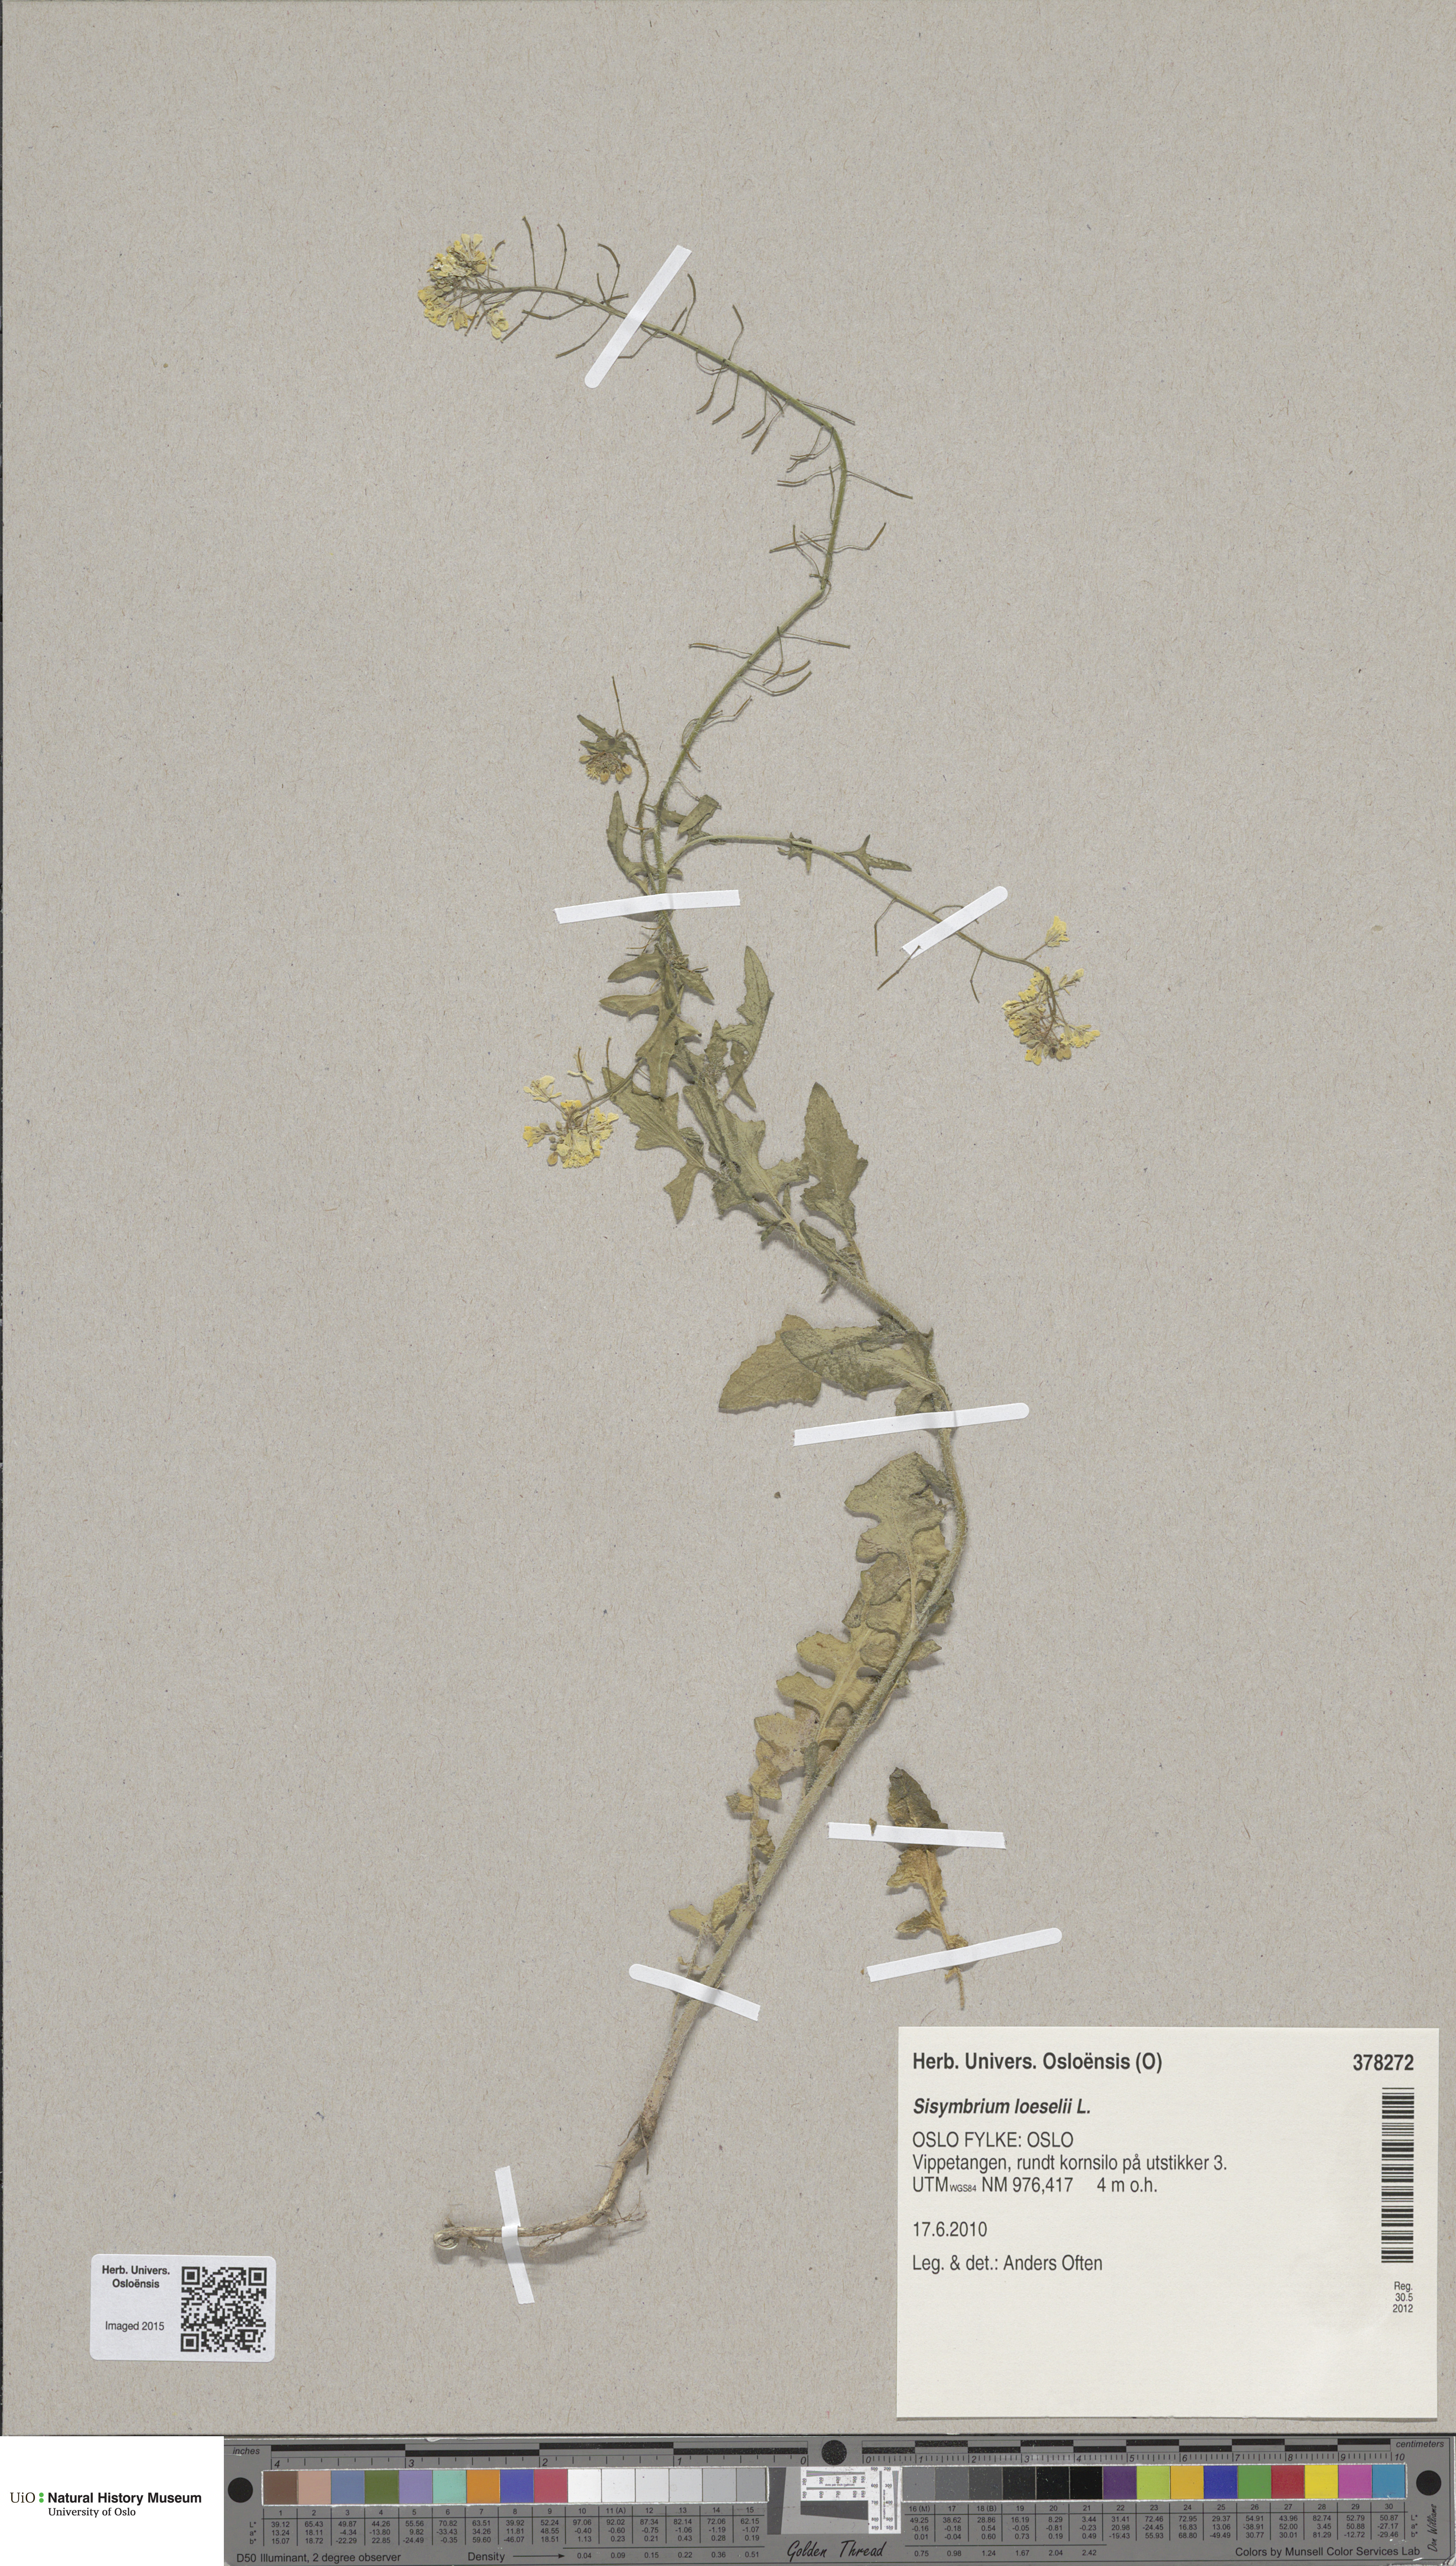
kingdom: Plantae
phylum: Tracheophyta
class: Magnoliopsida
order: Brassicales
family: Brassicaceae
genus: Sisymbrium
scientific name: Sisymbrium loeselii
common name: False london-rocket
